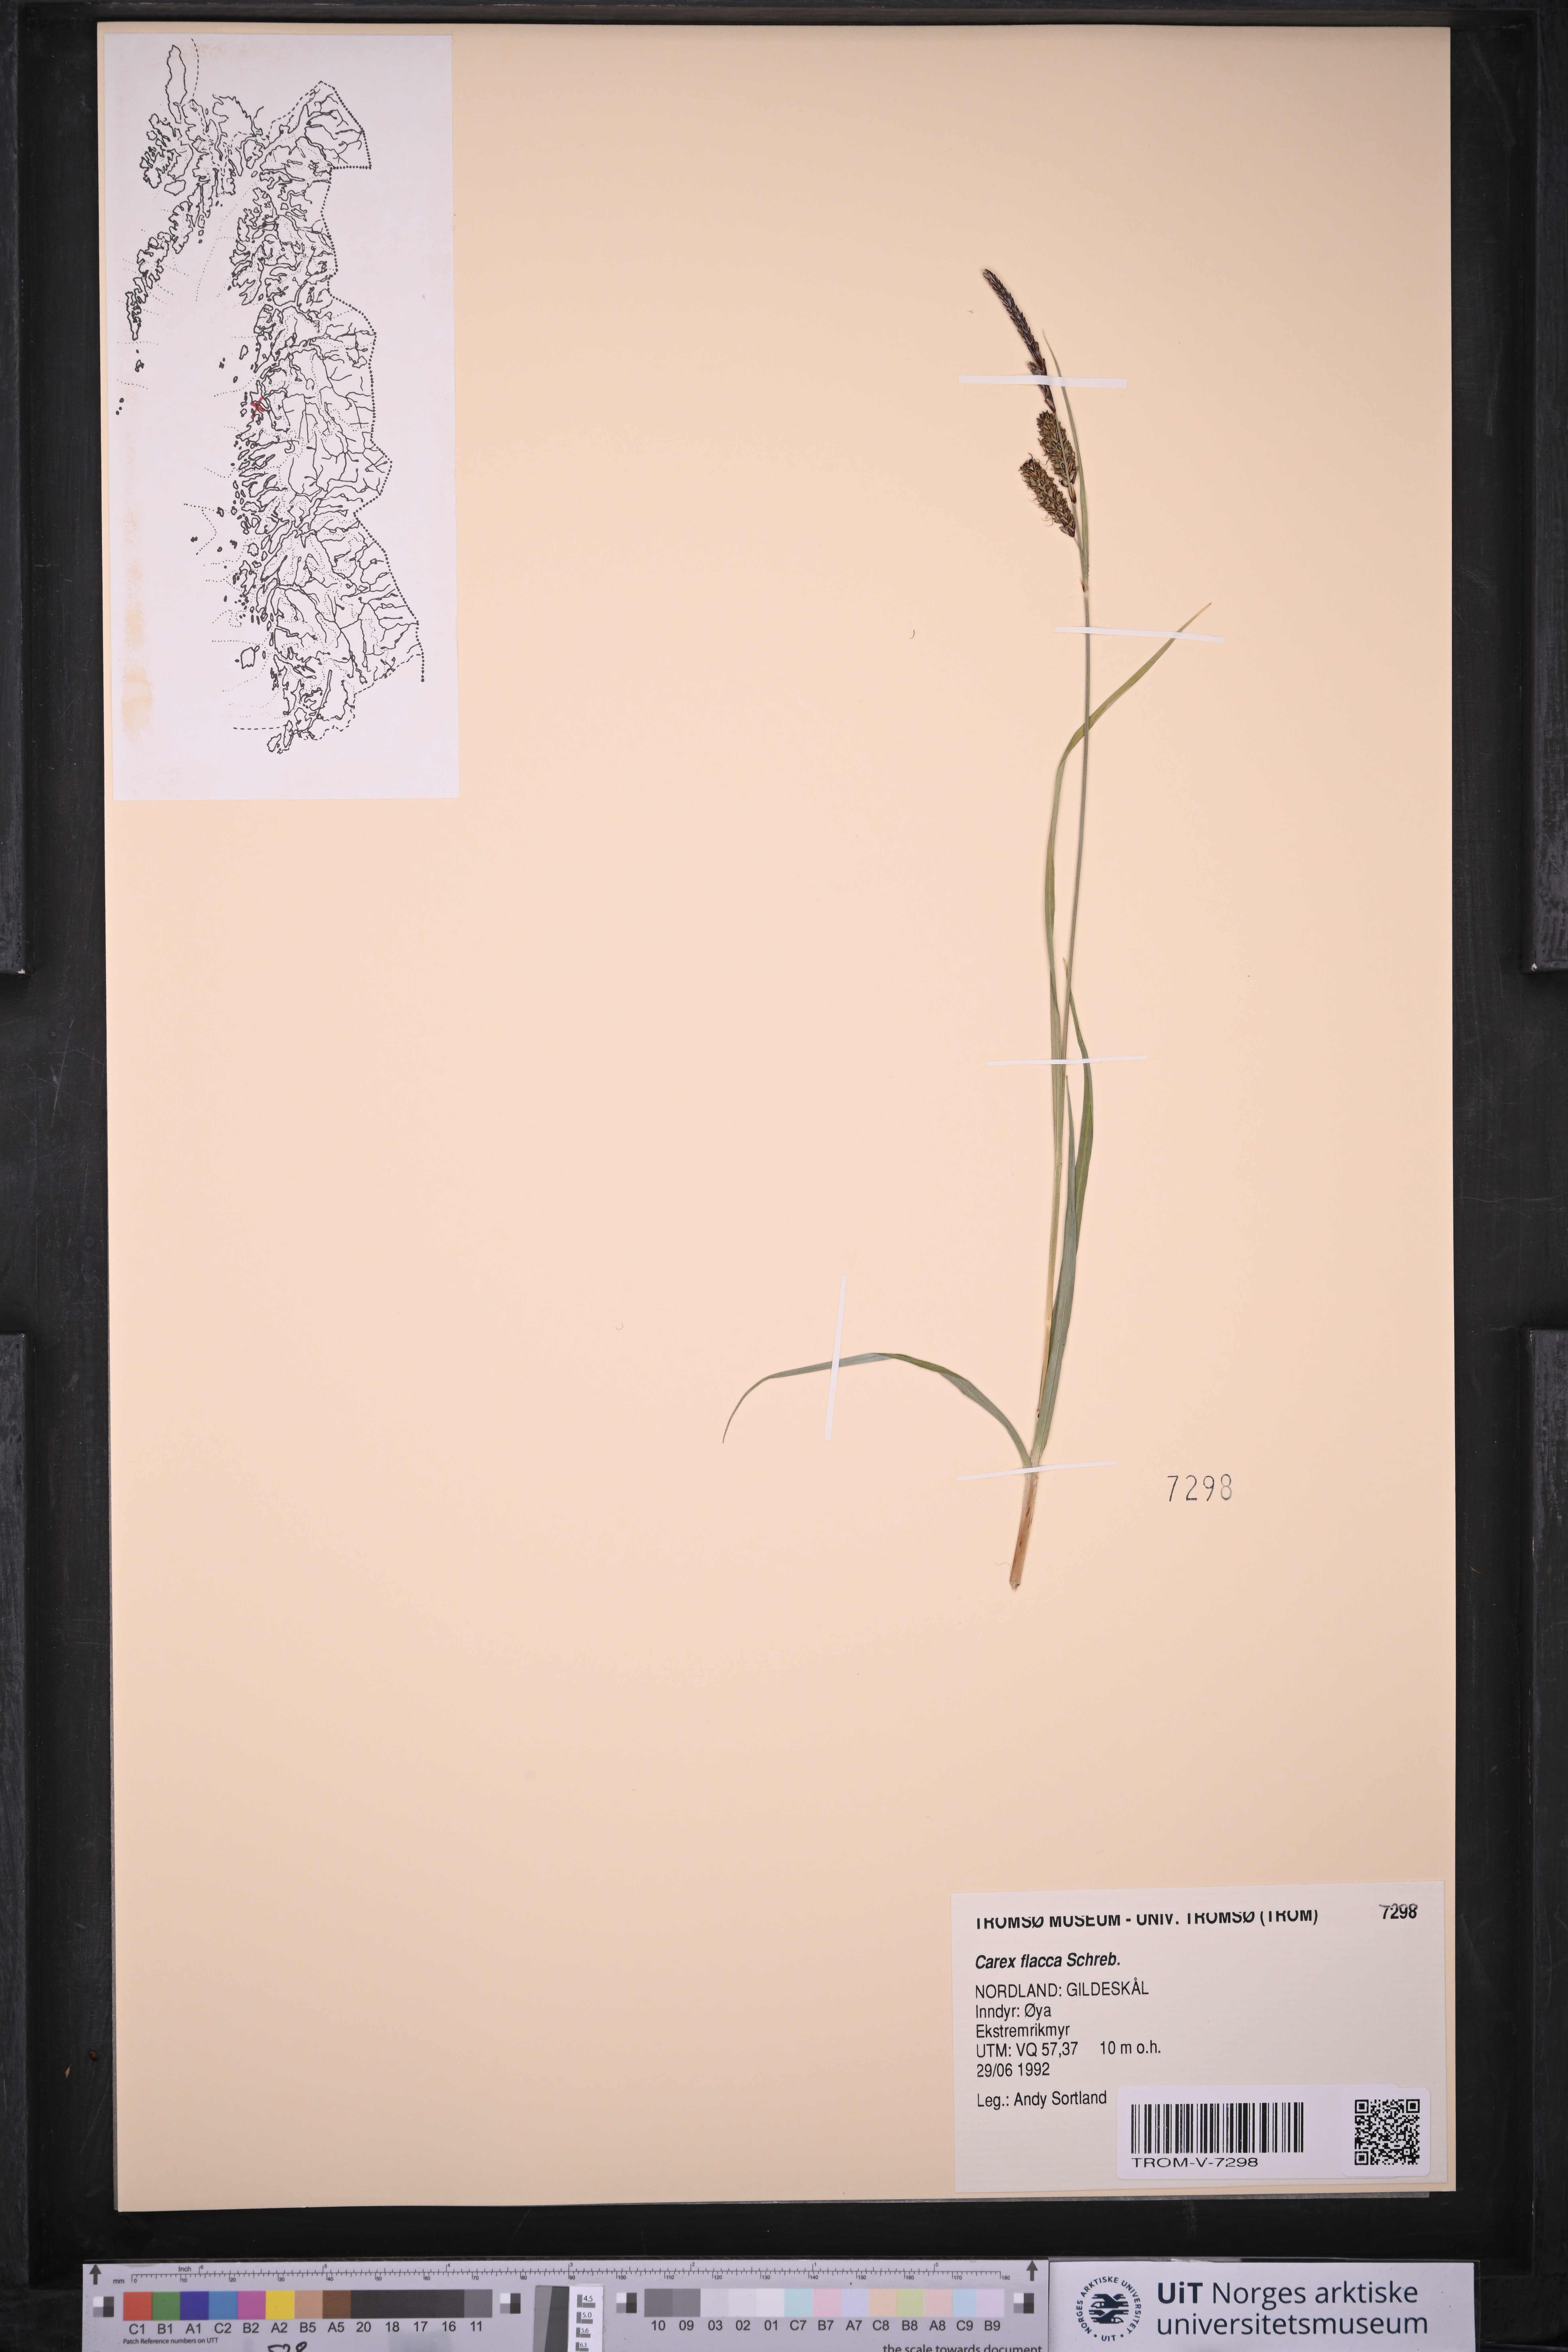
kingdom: Plantae
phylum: Tracheophyta
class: Liliopsida
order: Poales
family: Cyperaceae
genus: Carex
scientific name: Carex flacca
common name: Glaucous sedge
